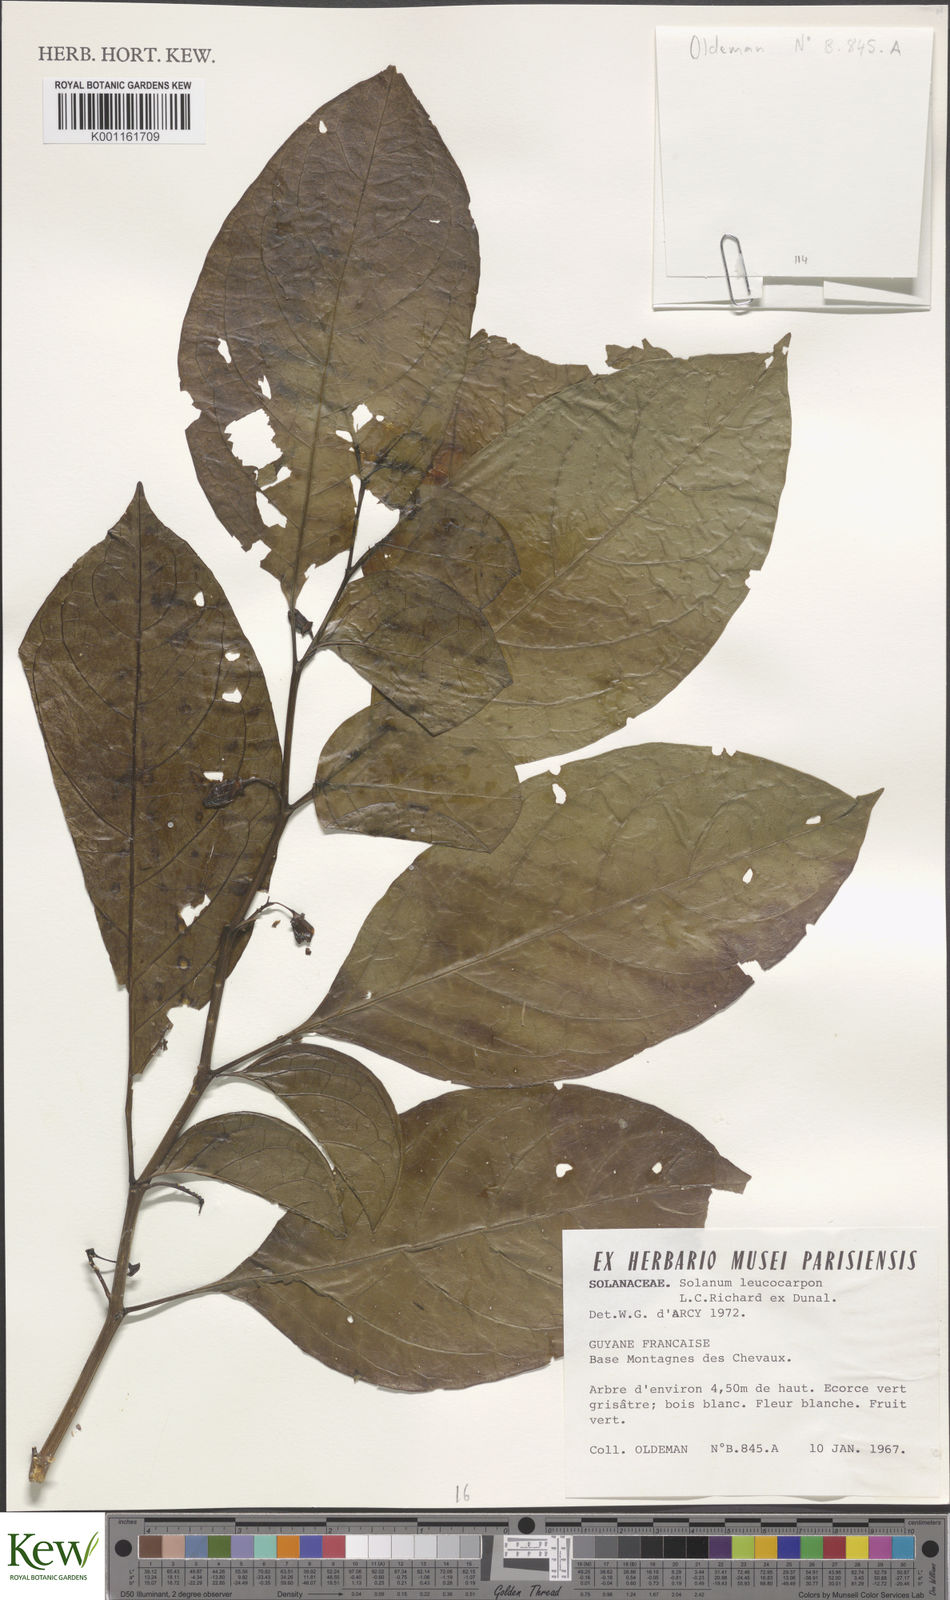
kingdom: Plantae
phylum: Tracheophyta
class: Magnoliopsida
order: Solanales
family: Solanaceae
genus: Solanum
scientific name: Solanum leucocarpon
